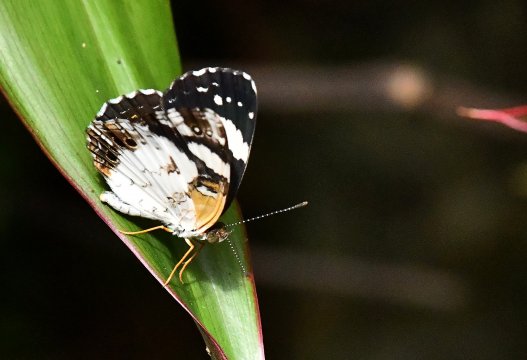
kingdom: Animalia
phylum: Arthropoda
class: Insecta
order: Lepidoptera
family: Nymphalidae
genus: Janatella
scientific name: Janatella leucodesma
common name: Whitened Crescent
